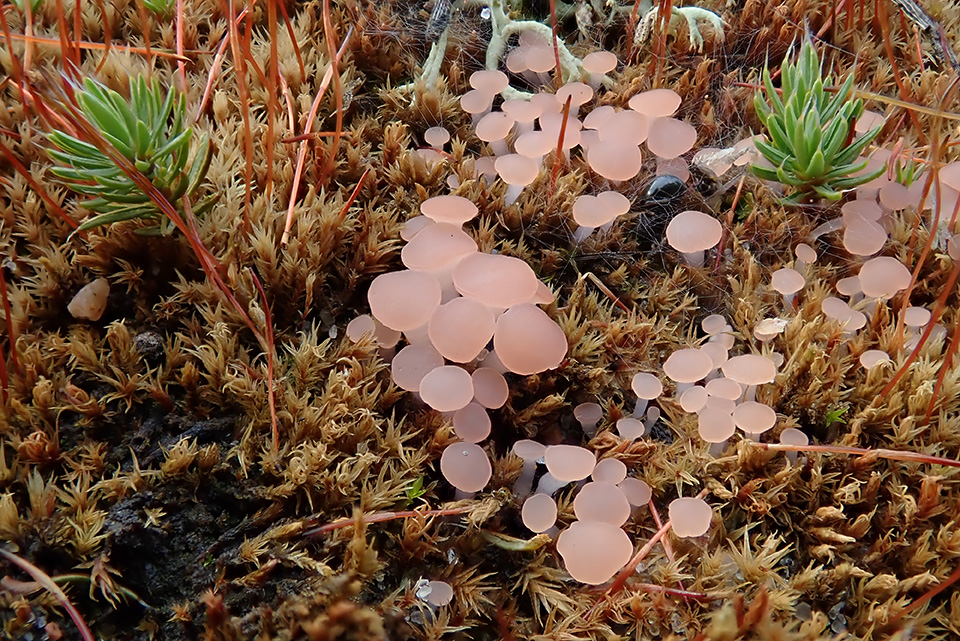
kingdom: Fungi
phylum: Ascomycota
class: Leotiomycetes
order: Helotiales
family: Hyaloscyphaceae
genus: Roseodiscus
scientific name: Roseodiscus formosus
